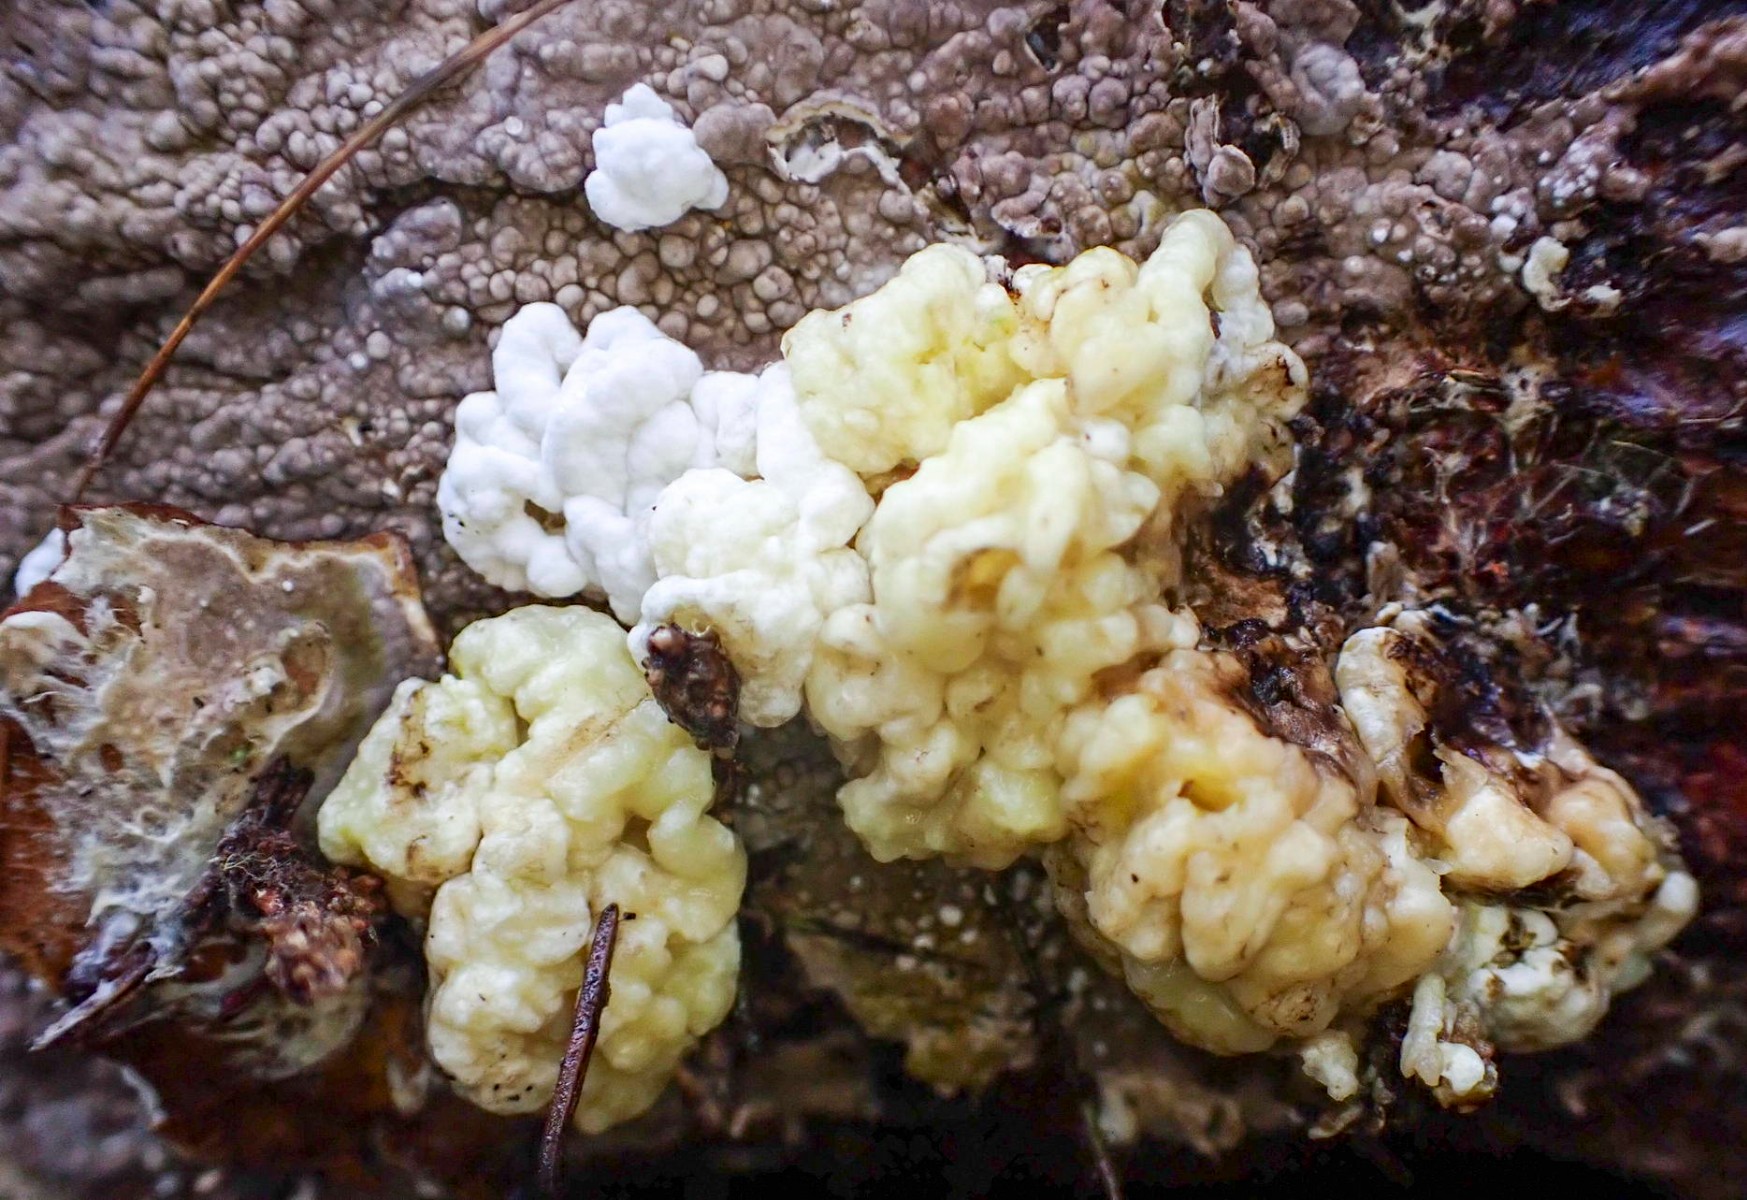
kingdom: Fungi
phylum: Ascomycota
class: Sordariomycetes
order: Xylariales
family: Hypoxylaceae
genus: Nodulisporium
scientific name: Nodulisporium cecidiogenes
